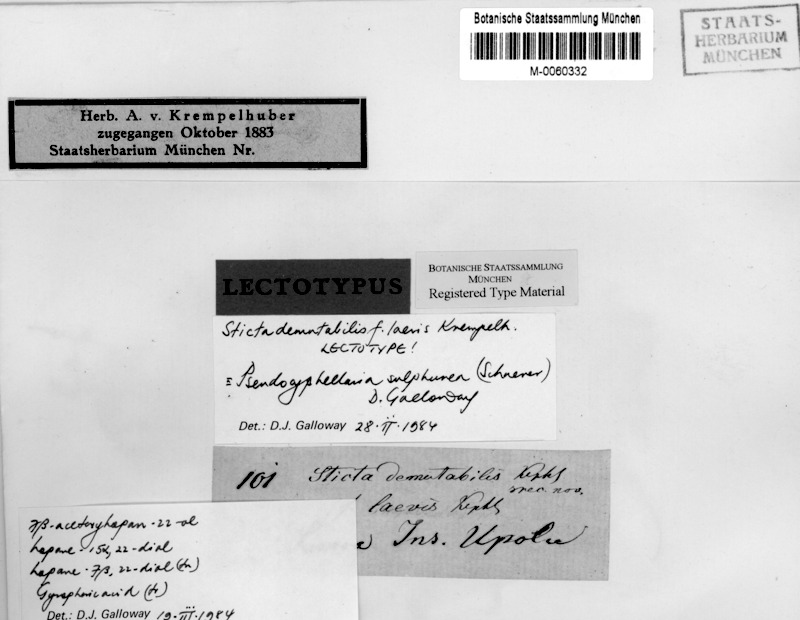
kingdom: Fungi
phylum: Ascomycota
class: Lecanoromycetes
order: Peltigerales
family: Lobariaceae
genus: Pseudocyphellaria
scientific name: Pseudocyphellaria sulphurea
